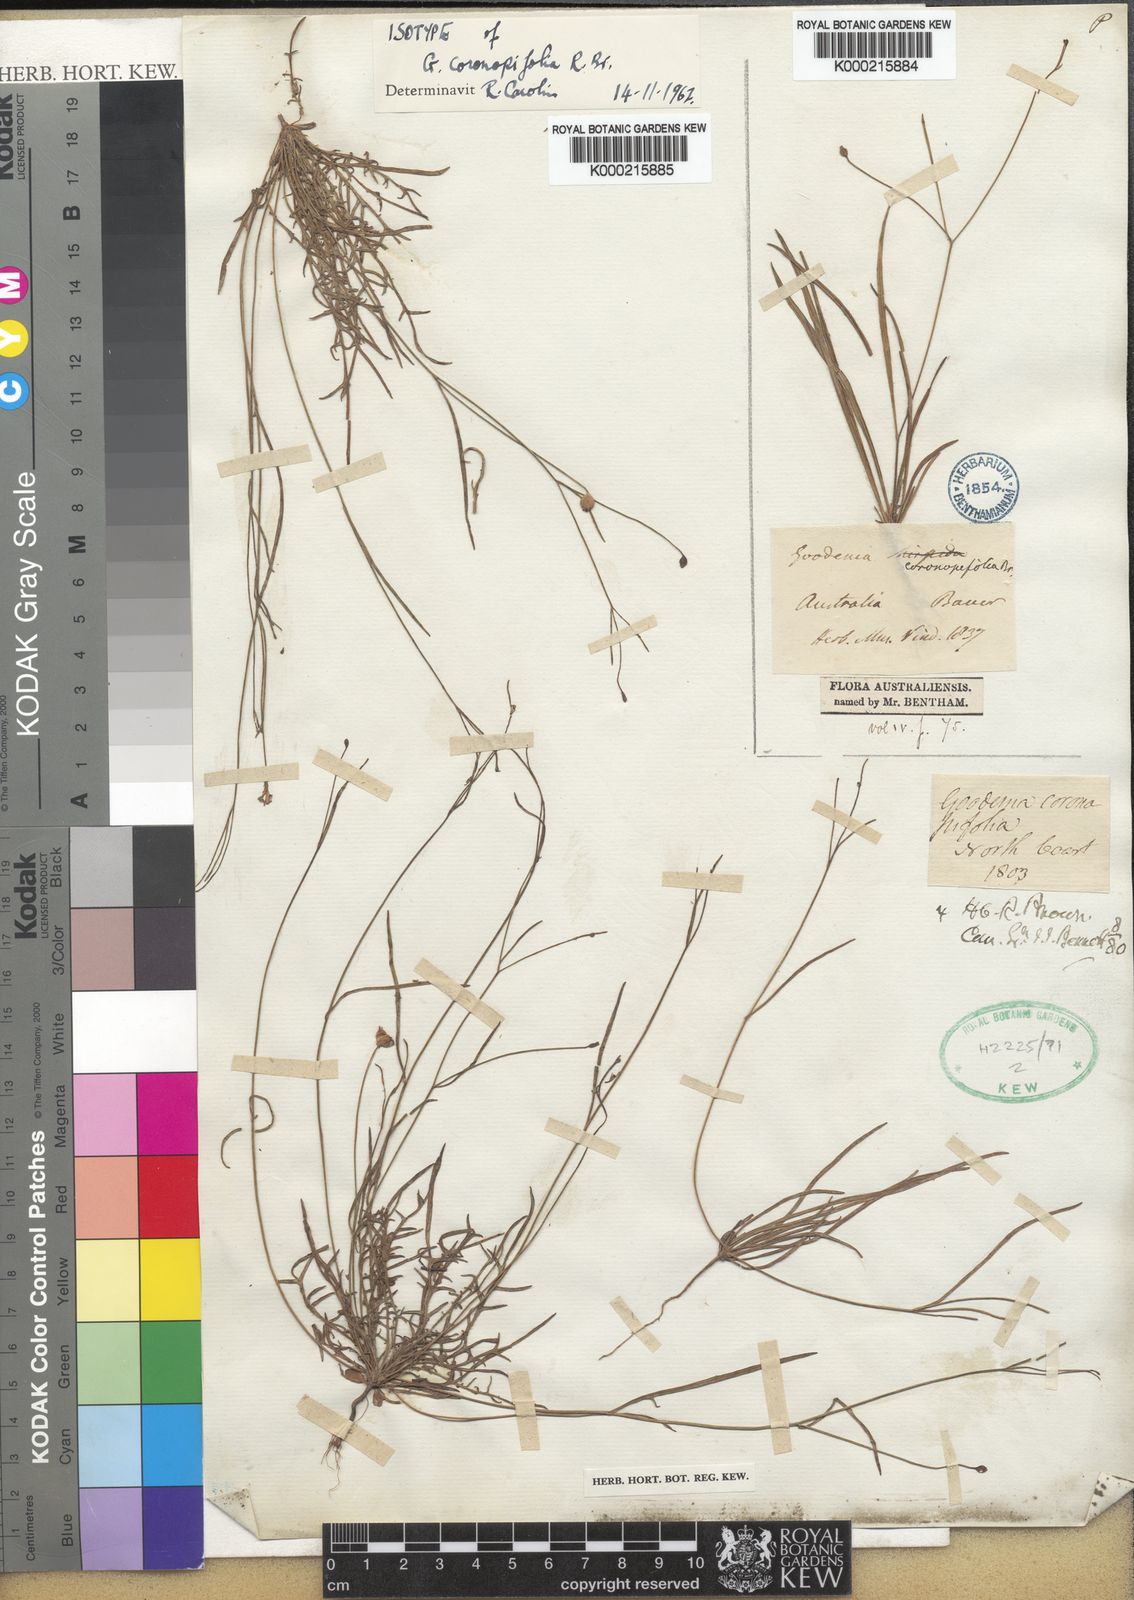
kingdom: Plantae
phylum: Tracheophyta
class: Magnoliopsida
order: Asterales
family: Goodeniaceae
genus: Goodenia
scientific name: Goodenia coronopifolia
